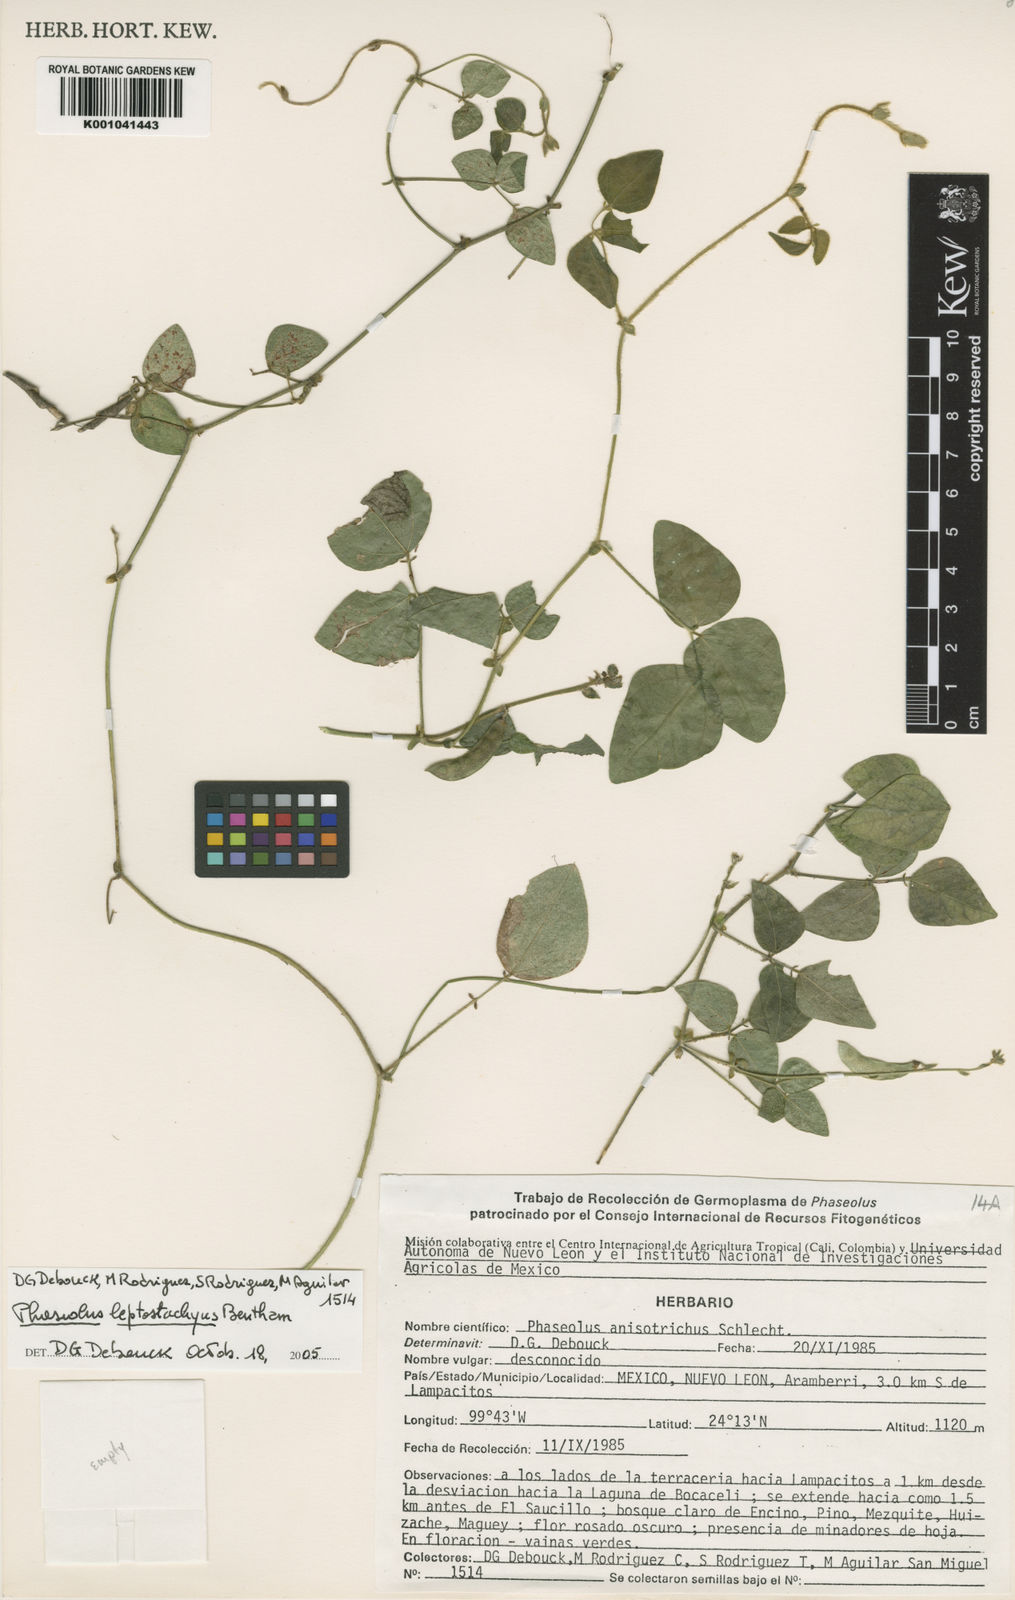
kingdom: Plantae
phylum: Tracheophyta
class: Magnoliopsida
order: Fabales
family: Fabaceae
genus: Phaseolus
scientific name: Phaseolus
